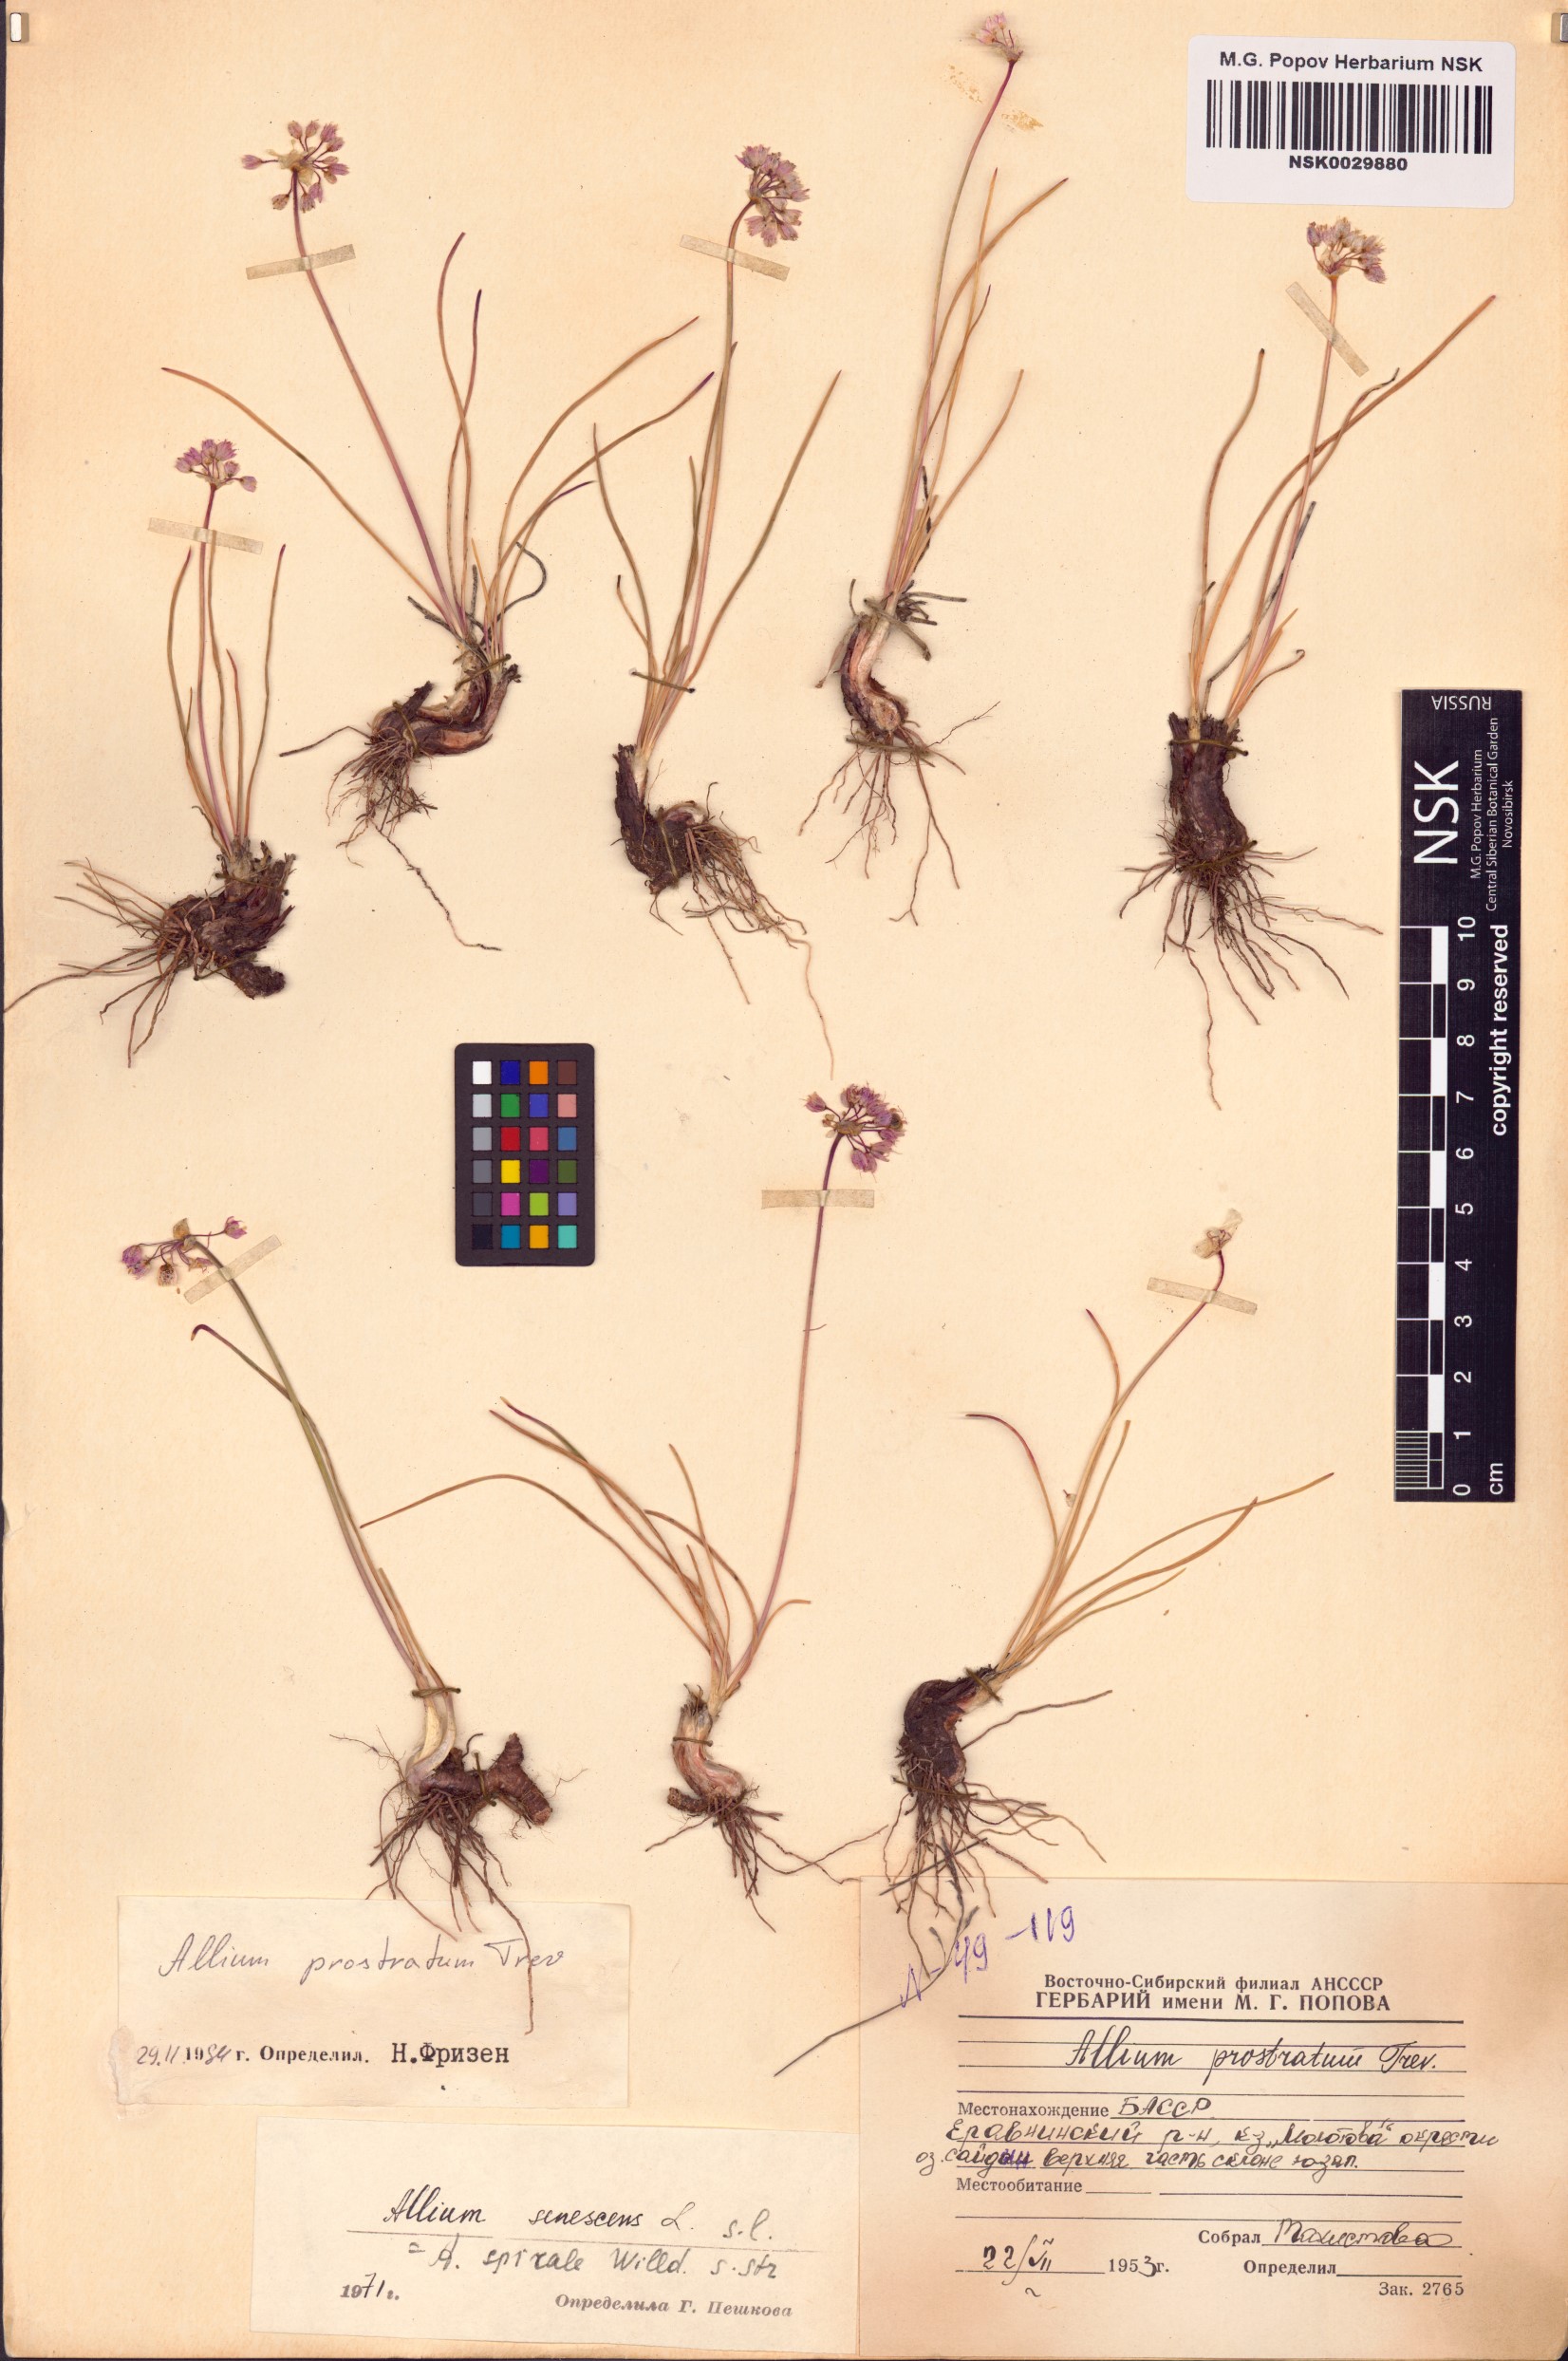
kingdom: Plantae
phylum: Tracheophyta
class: Liliopsida
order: Asparagales
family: Amaryllidaceae
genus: Allium
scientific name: Allium prostratum
